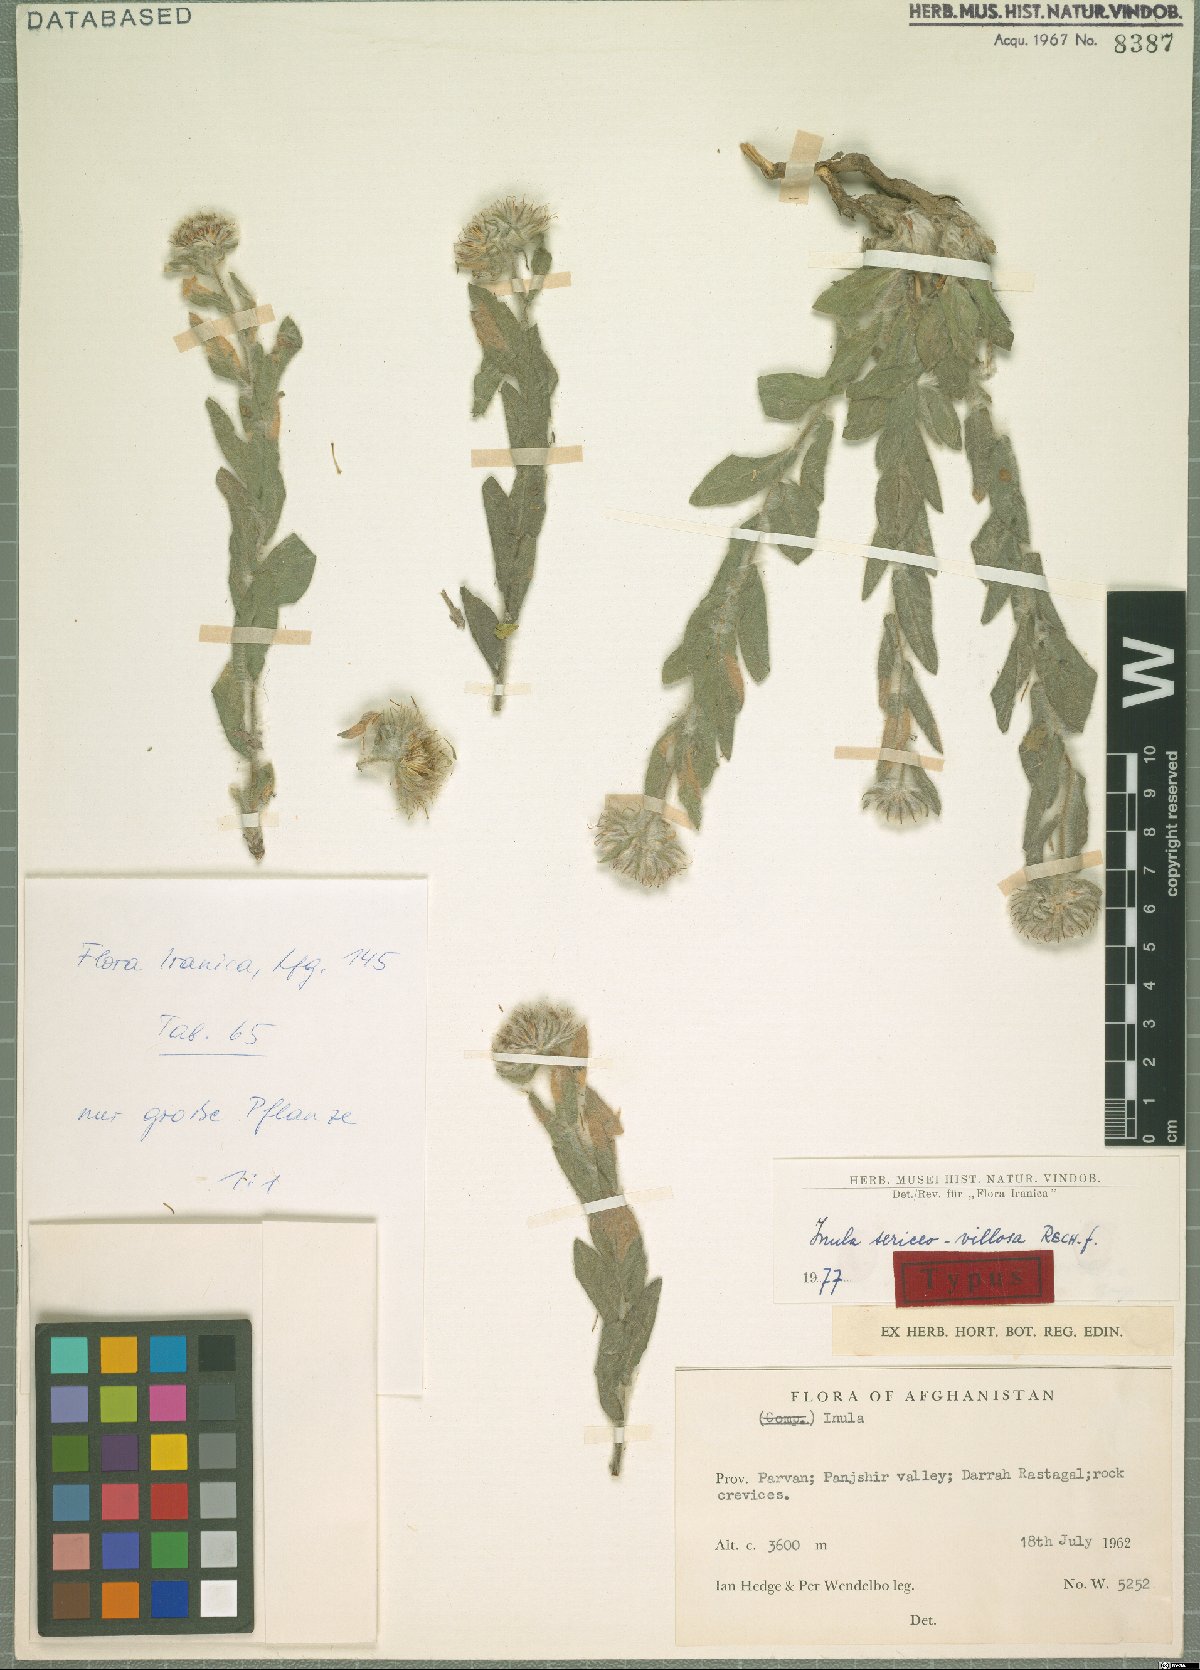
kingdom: Plantae
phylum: Tracheophyta
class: Magnoliopsida
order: Asterales
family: Asteraceae
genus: Inula
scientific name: Inula sericeovillosa
